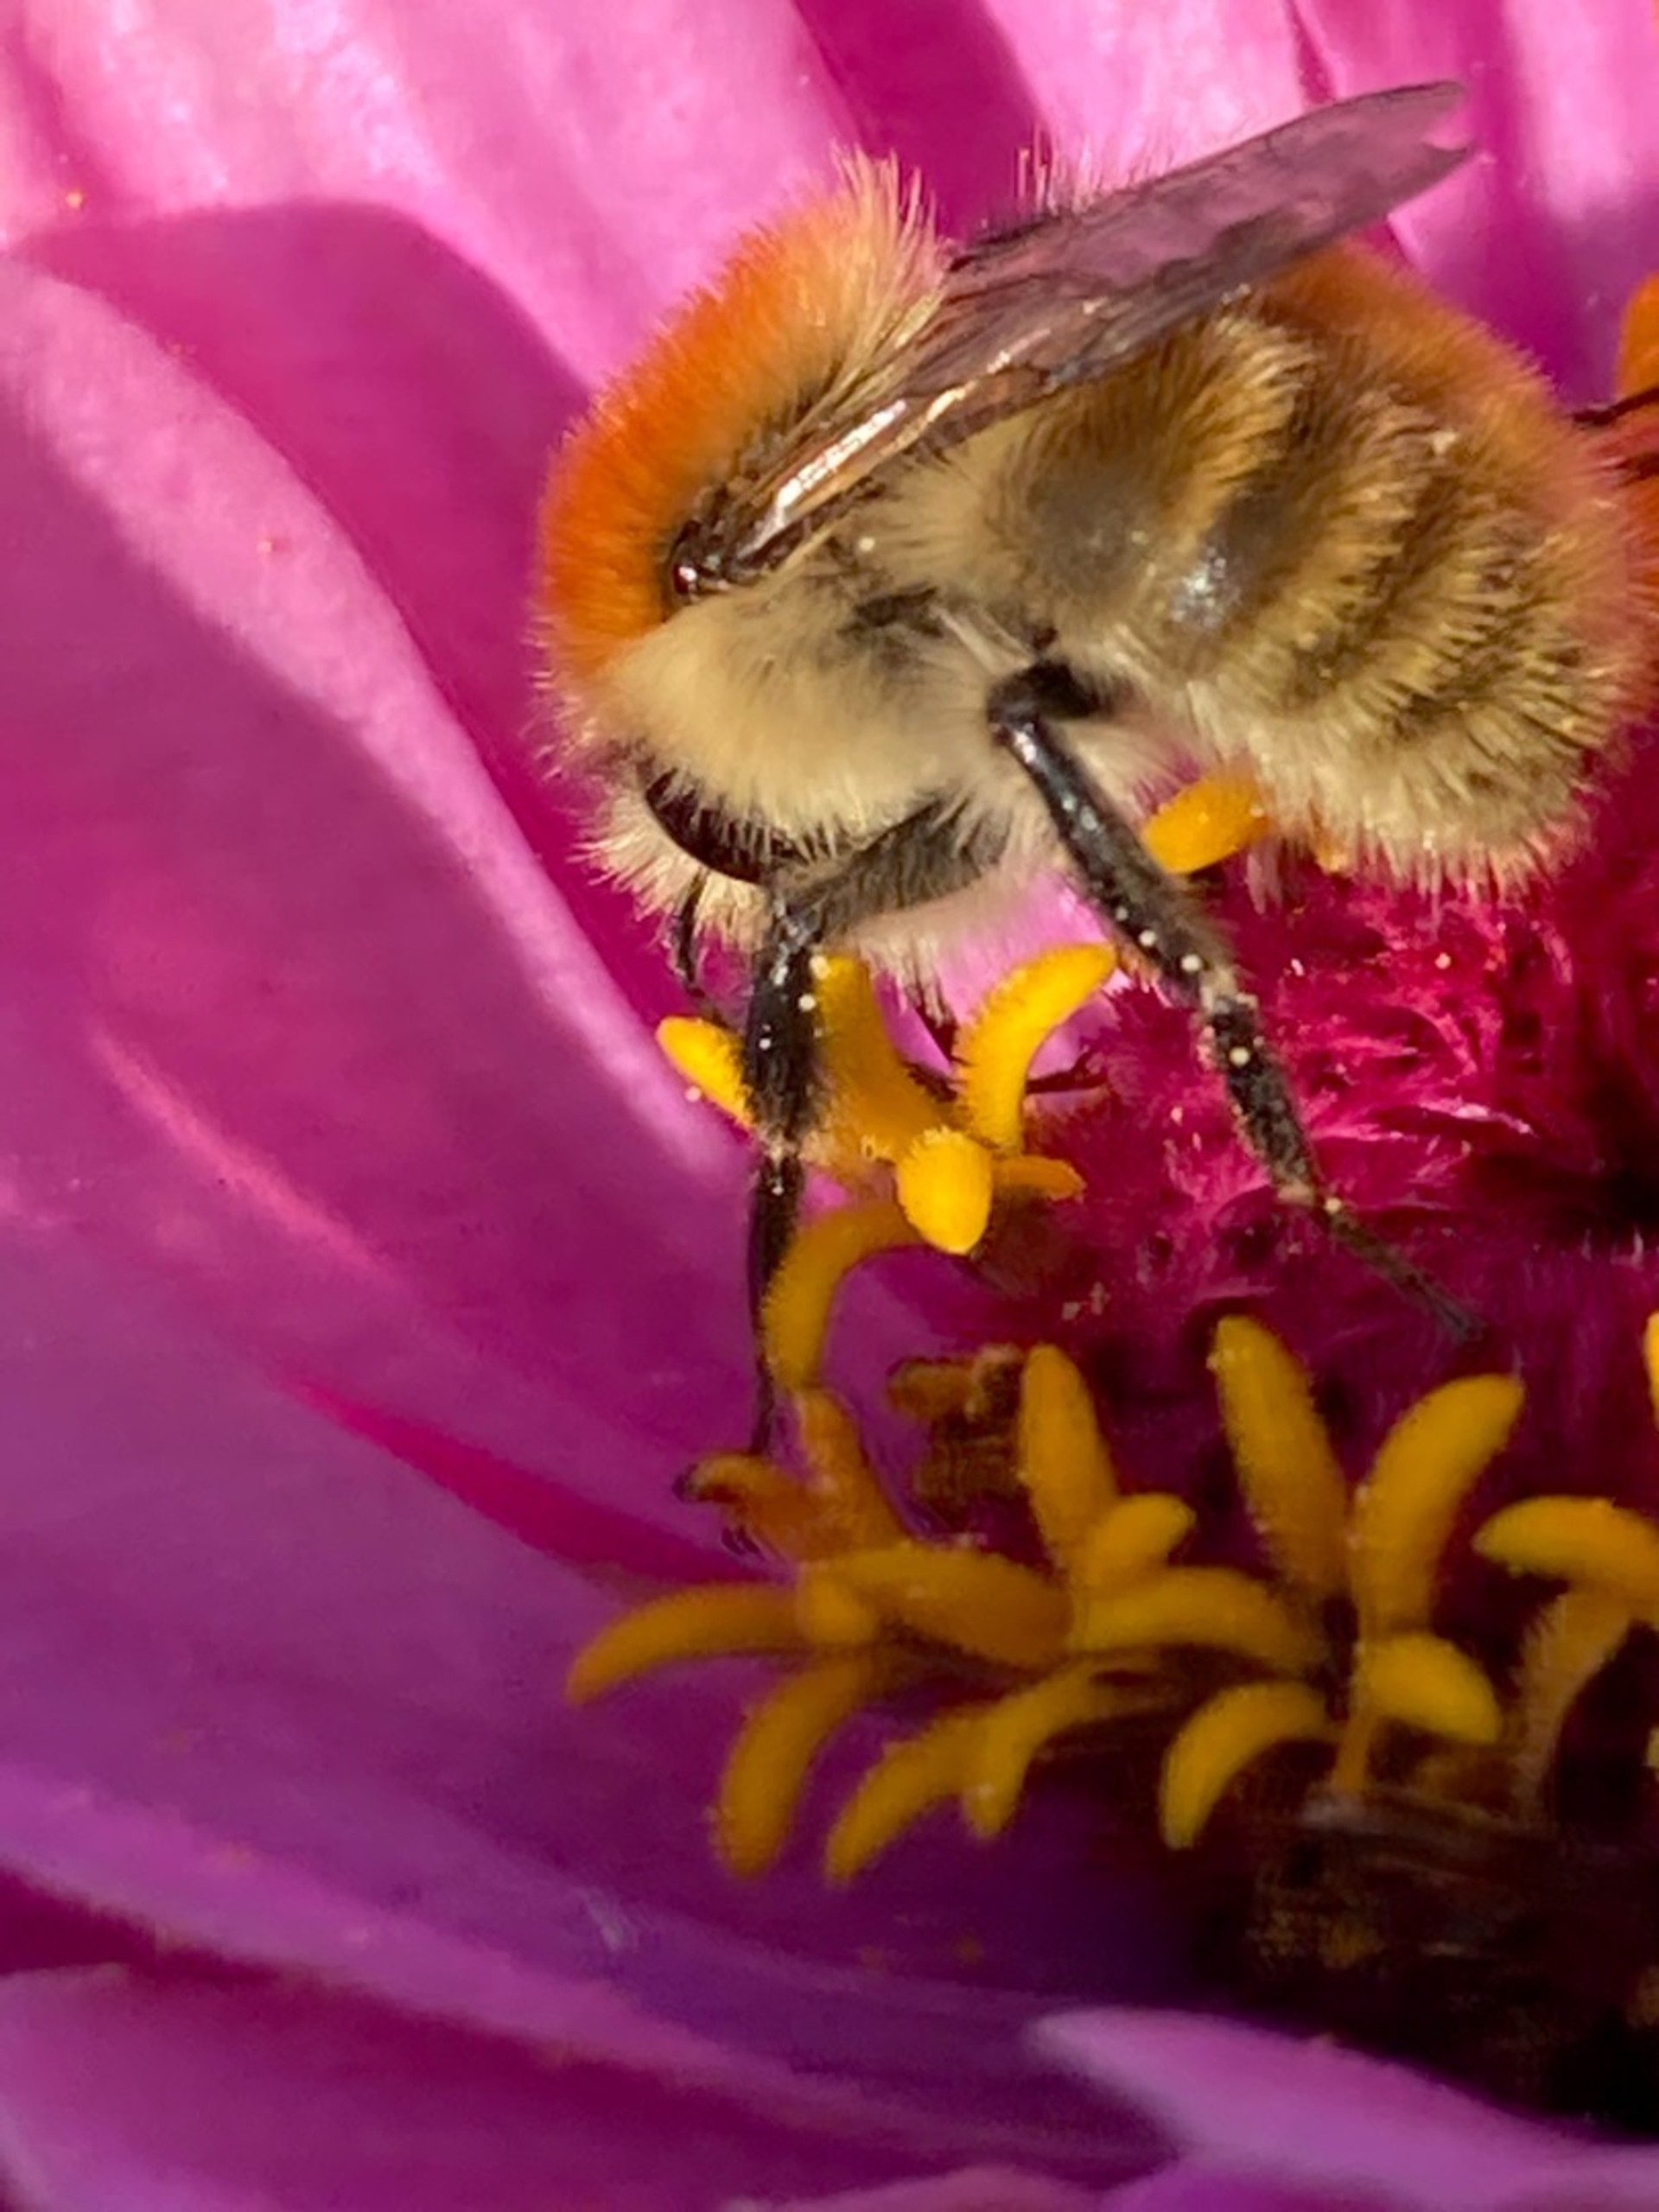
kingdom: Animalia
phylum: Arthropoda
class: Insecta
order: Hymenoptera
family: Apidae
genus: Bombus
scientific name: Bombus muscorum
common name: Moshumle
